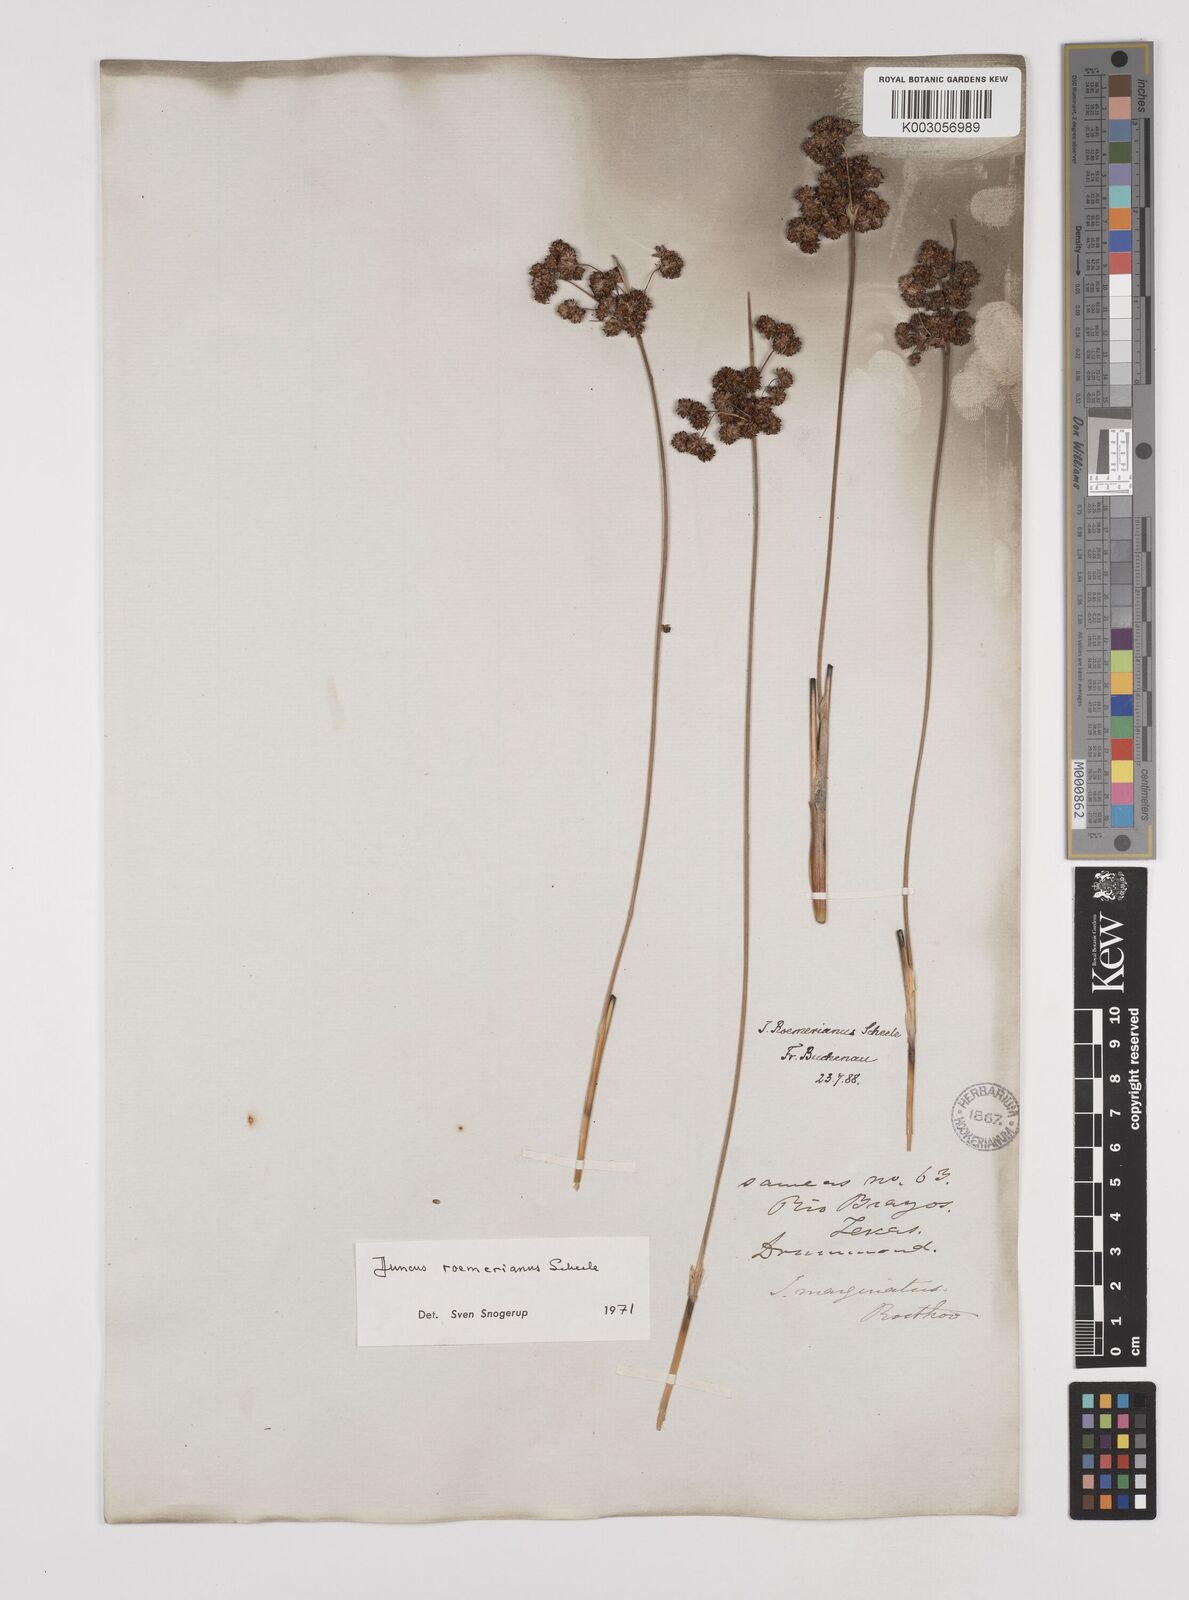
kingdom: Plantae
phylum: Tracheophyta
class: Liliopsida
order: Poales
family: Juncaceae
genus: Juncus
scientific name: Juncus roemerianus
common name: Roemer's rush
